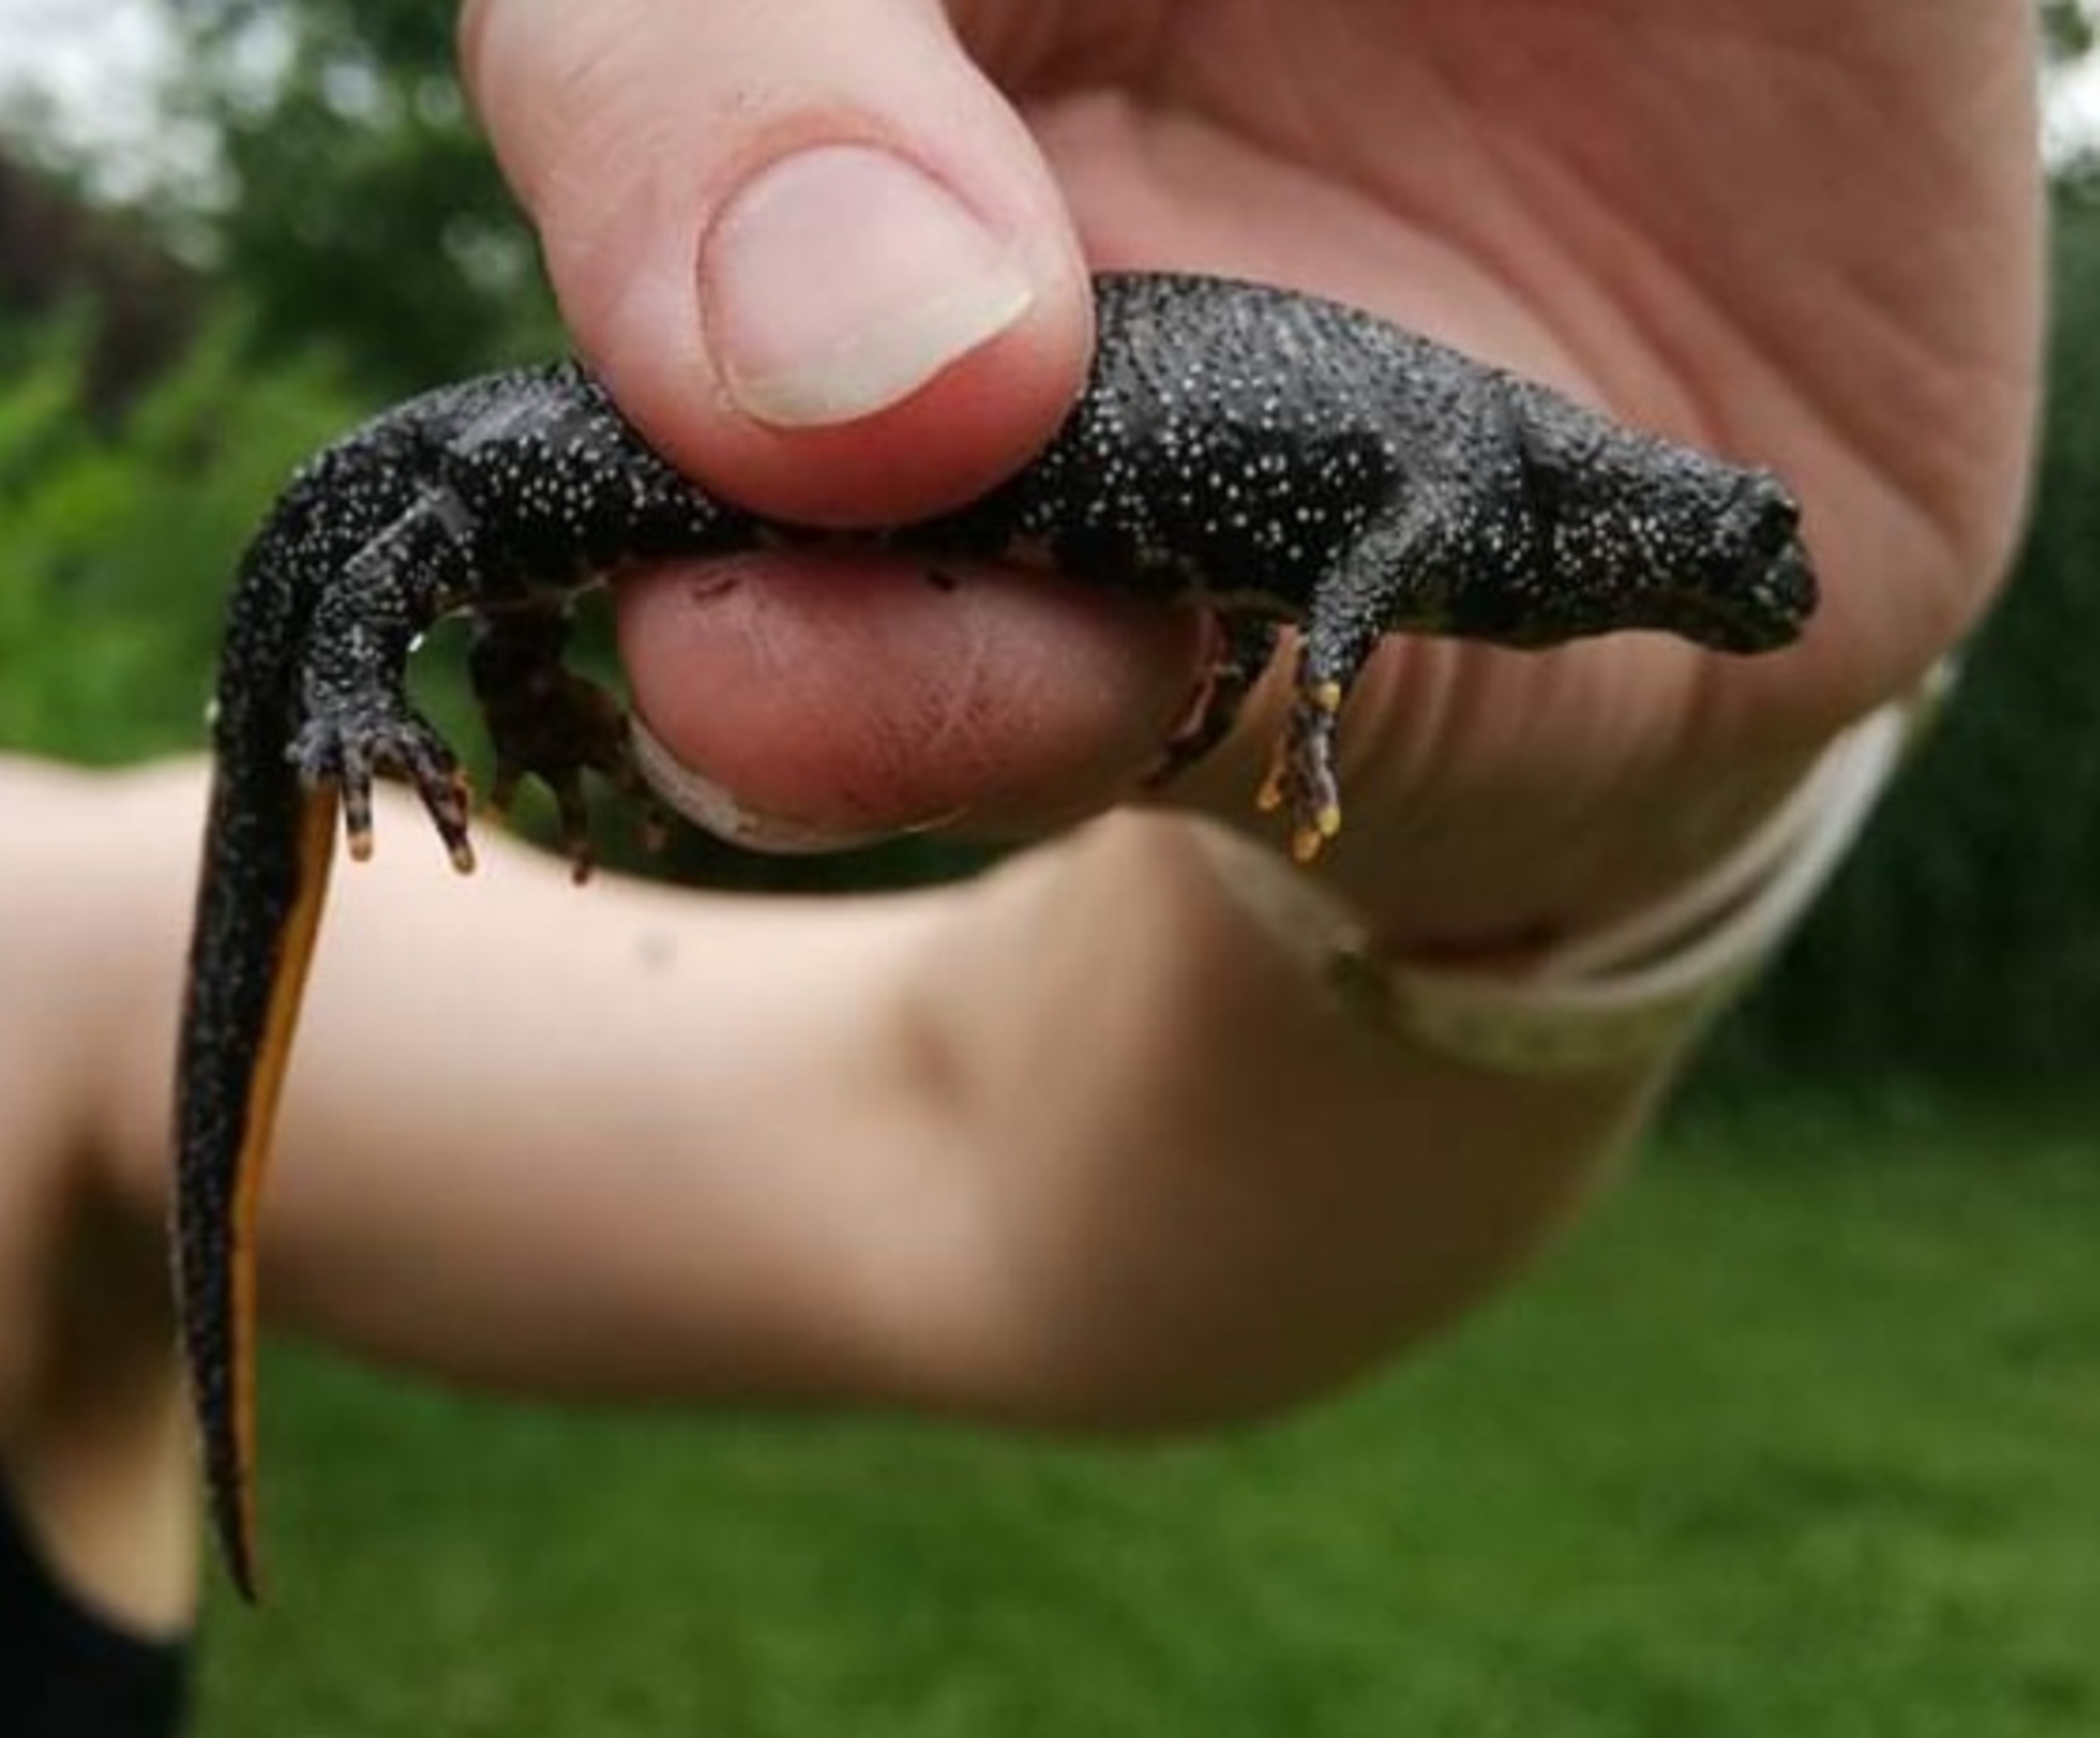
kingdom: Animalia
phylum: Chordata
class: Amphibia
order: Caudata
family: Salamandridae
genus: Triturus
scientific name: Triturus cristatus
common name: Stor vandsalamander
